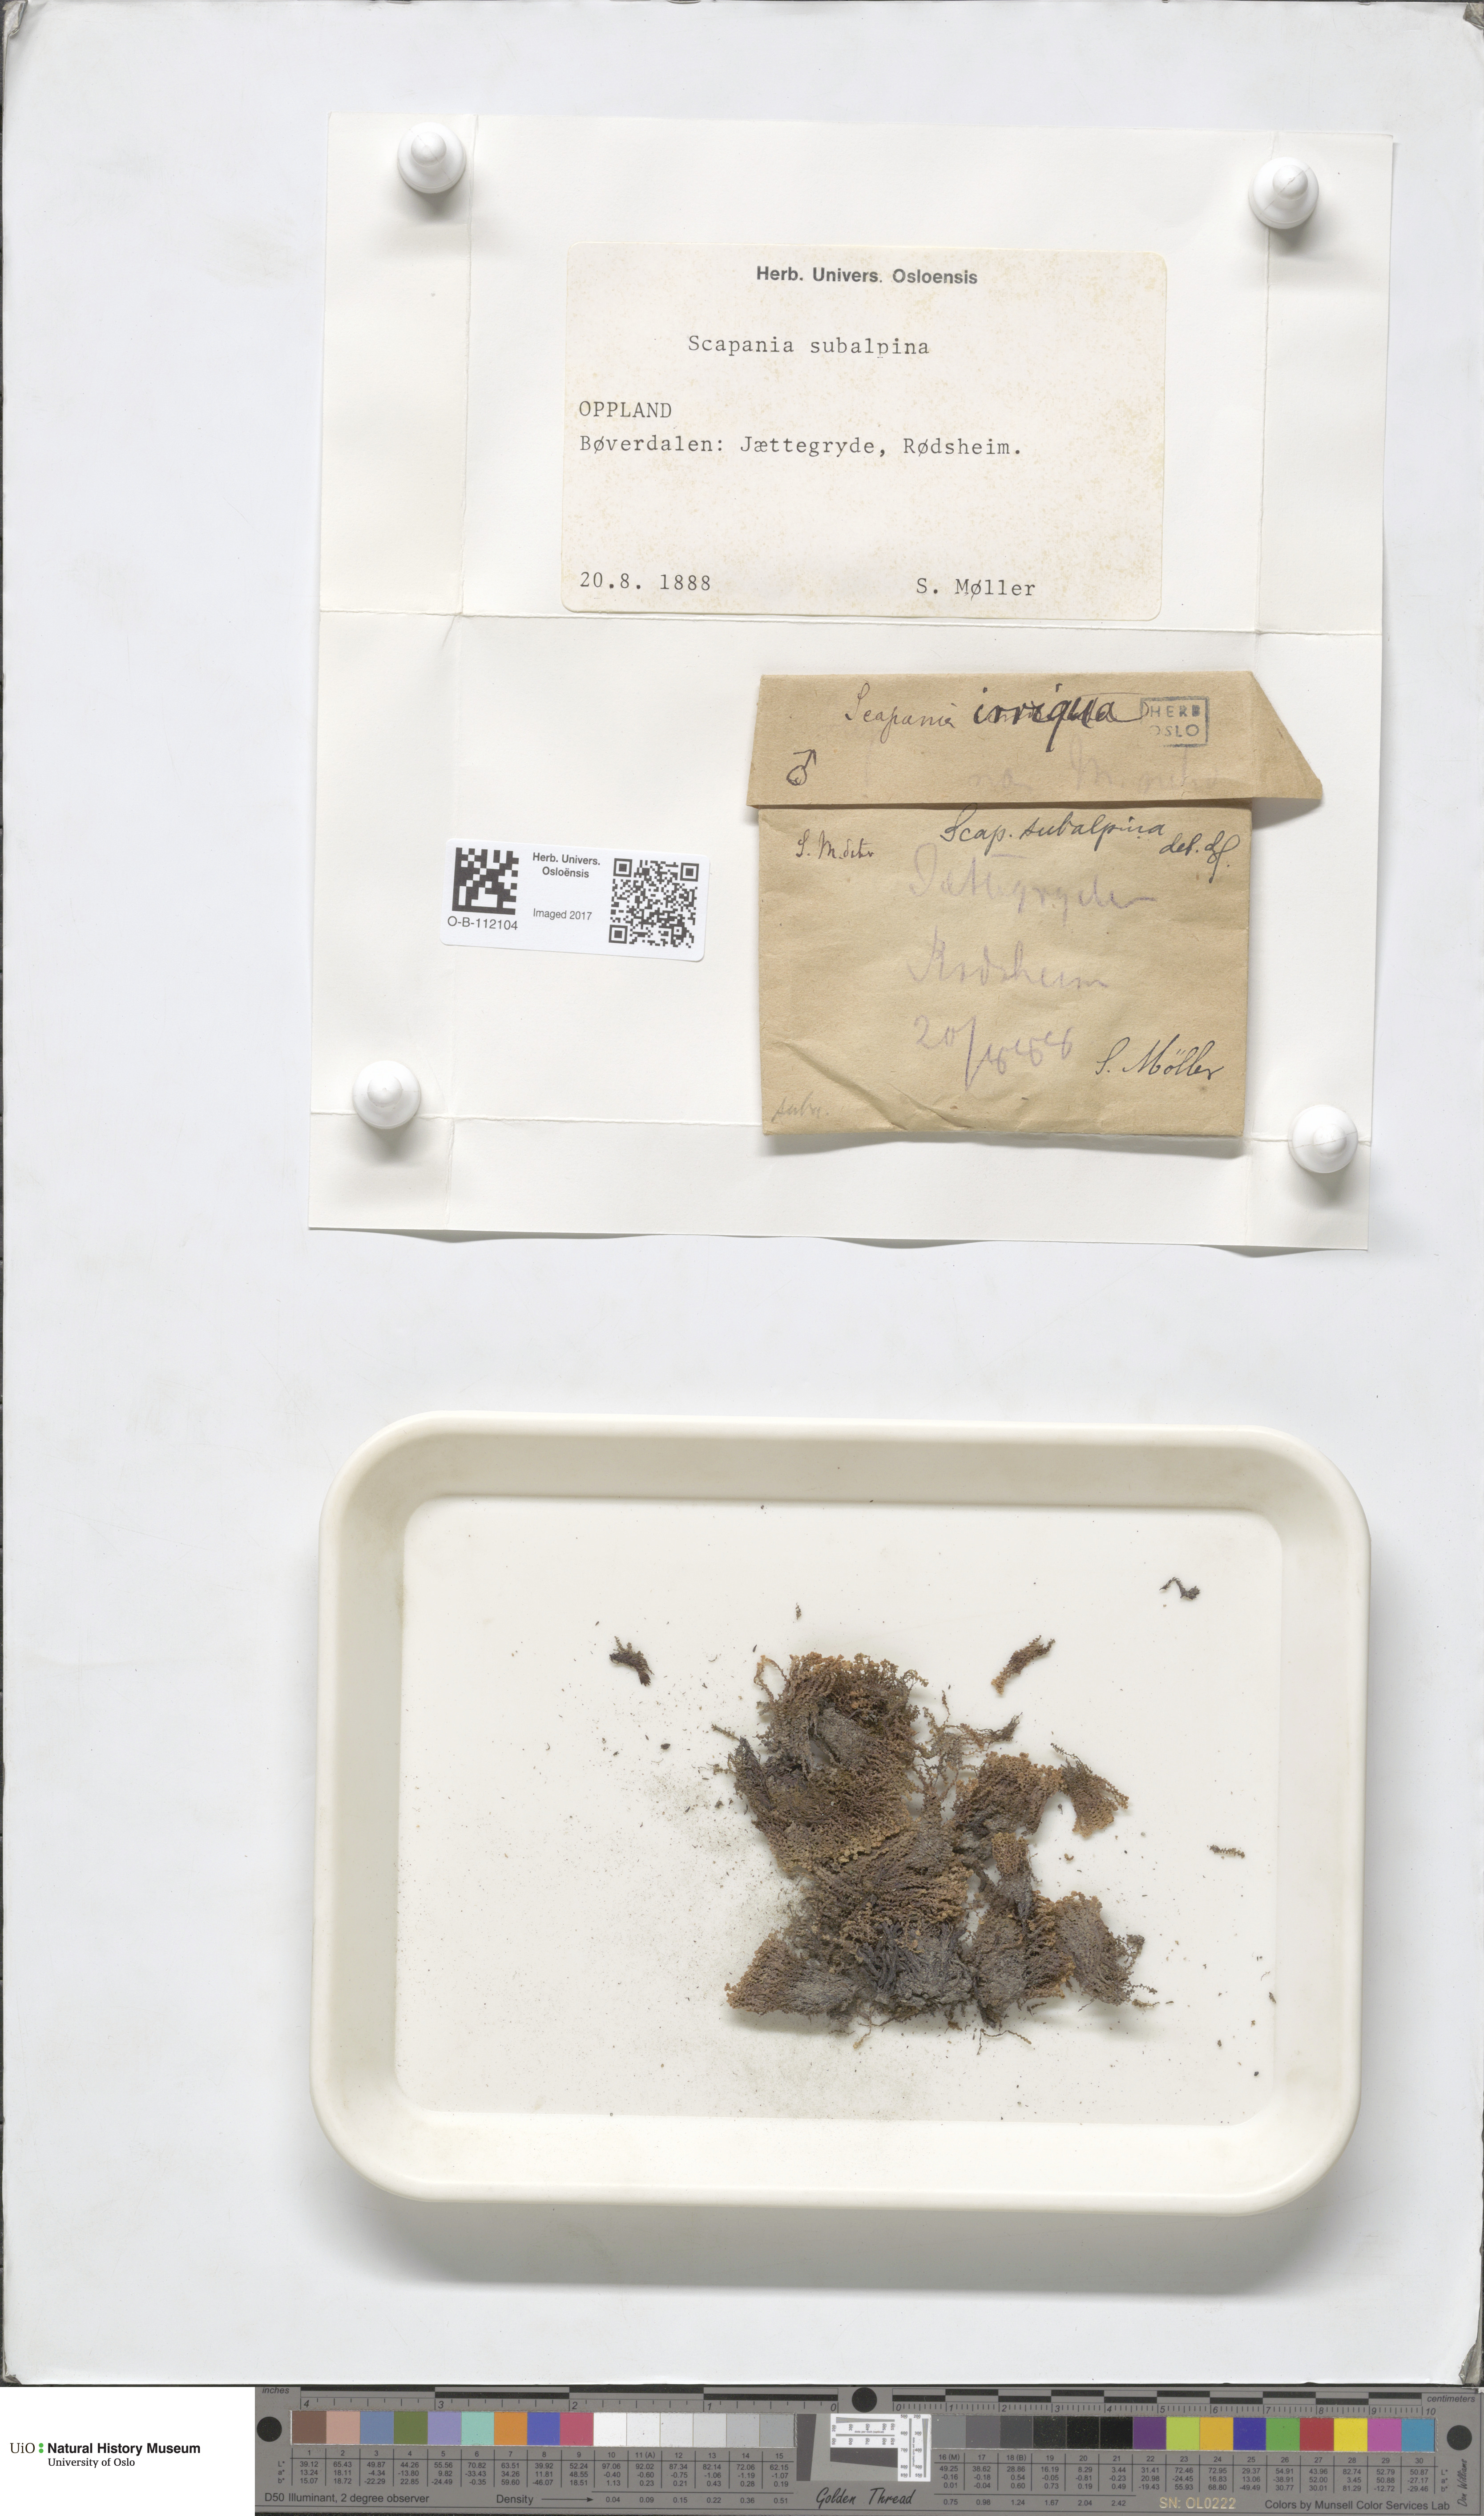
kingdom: Plantae
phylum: Marchantiophyta
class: Jungermanniopsida
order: Jungermanniales
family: Scapaniaceae
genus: Scapania
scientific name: Scapania subalpina
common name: Subalpine earwort
